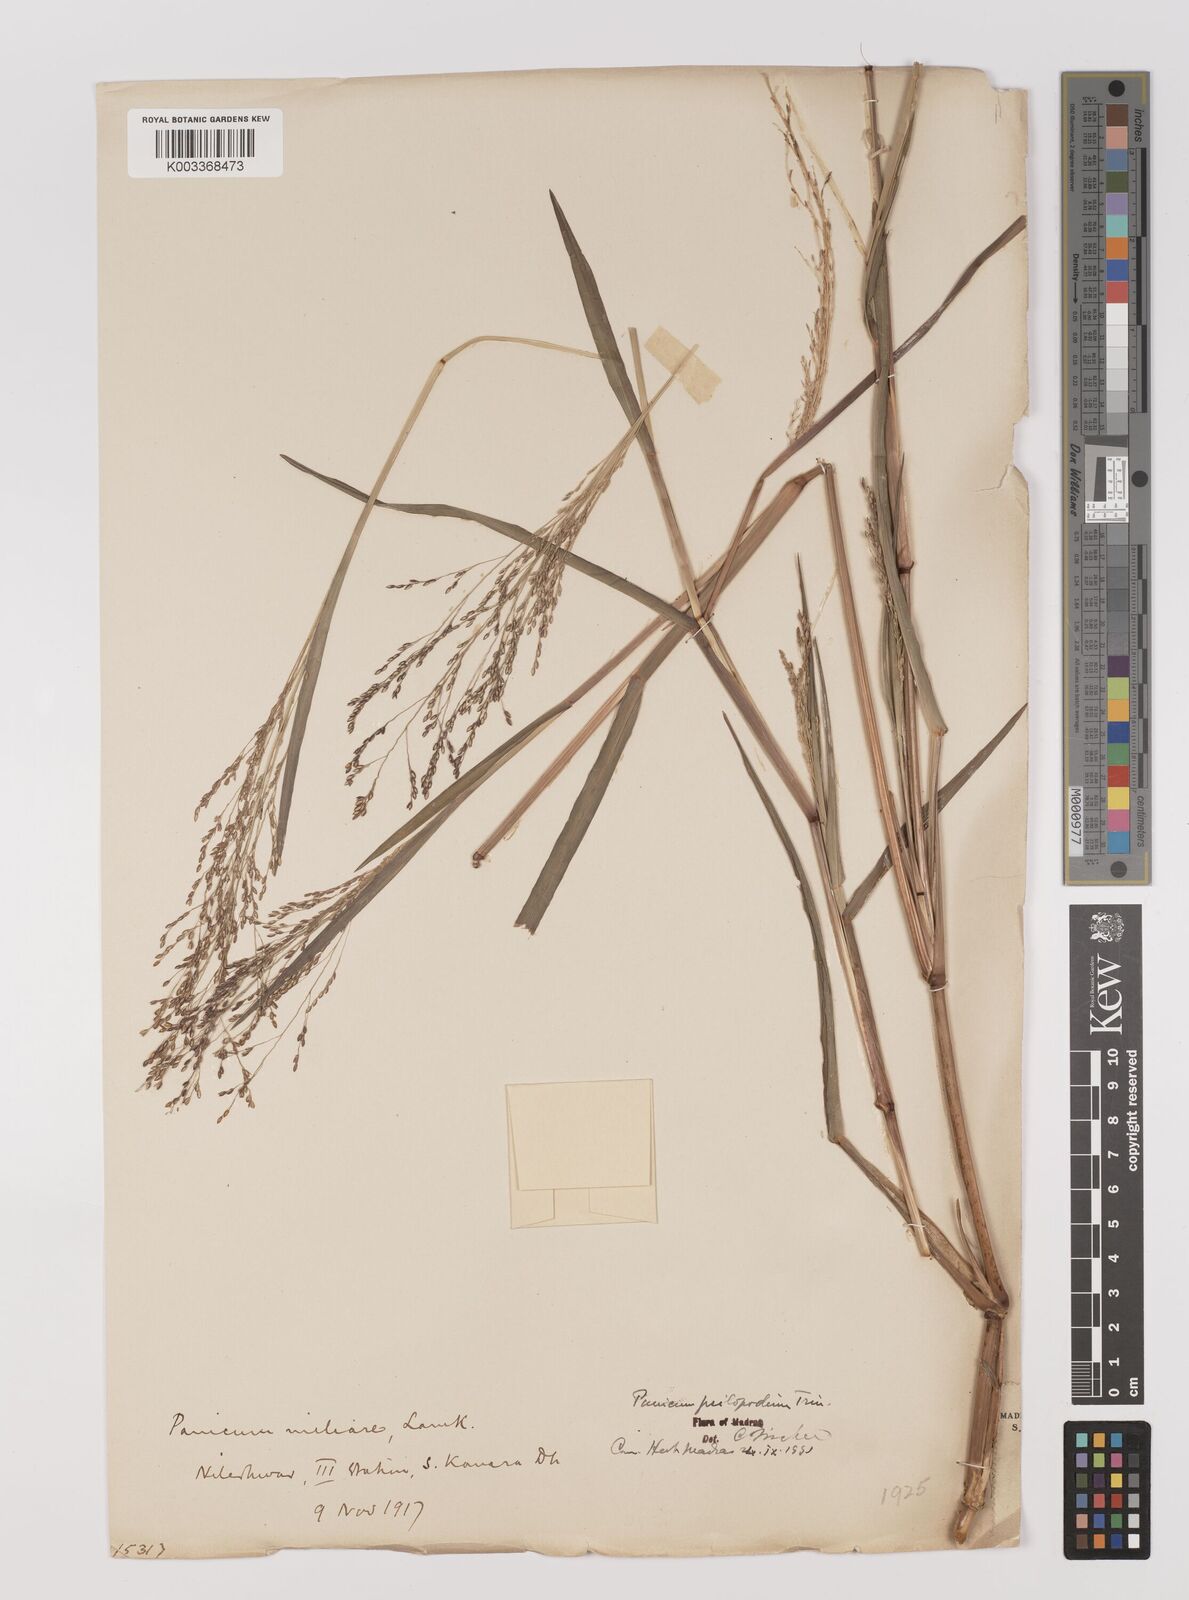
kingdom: Plantae
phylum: Tracheophyta
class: Liliopsida
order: Poales
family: Poaceae
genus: Panicum
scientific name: Panicum sumatrense
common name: Little millet
